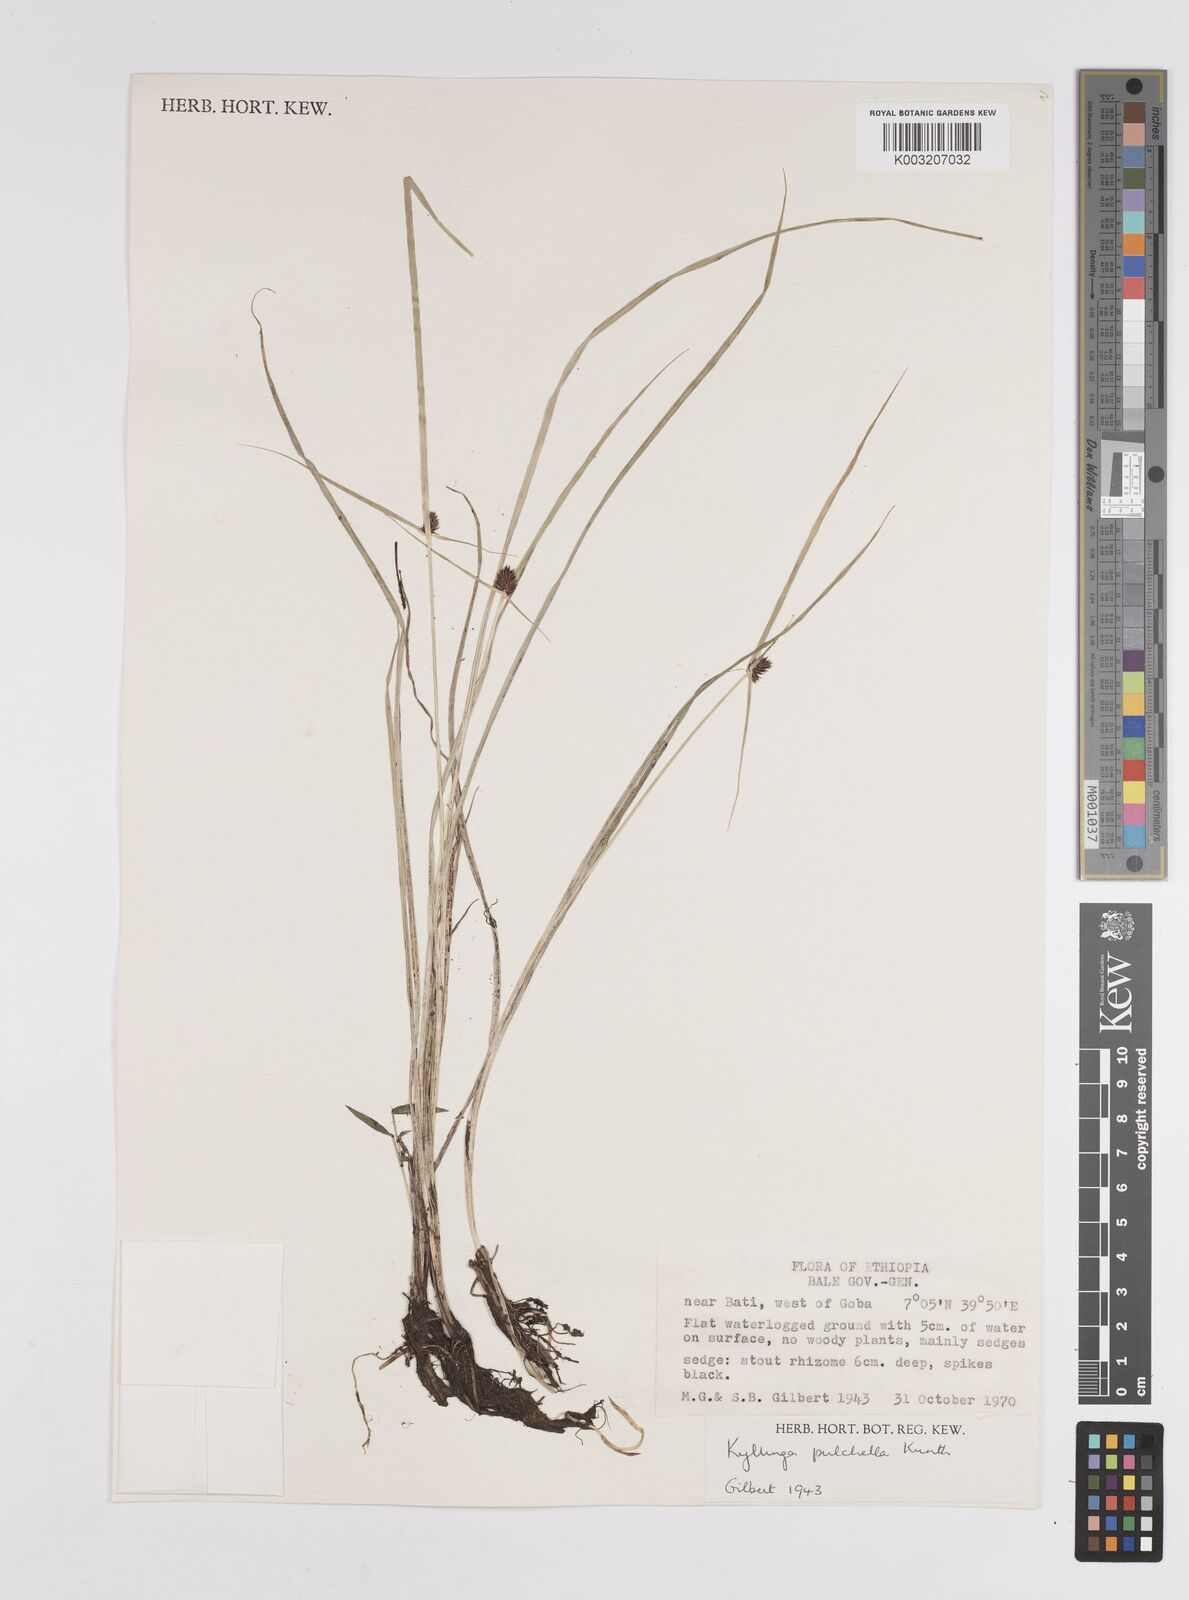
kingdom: Plantae
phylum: Tracheophyta
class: Liliopsida
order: Poales
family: Cyperaceae
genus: Cyperus
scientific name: Cyperus
